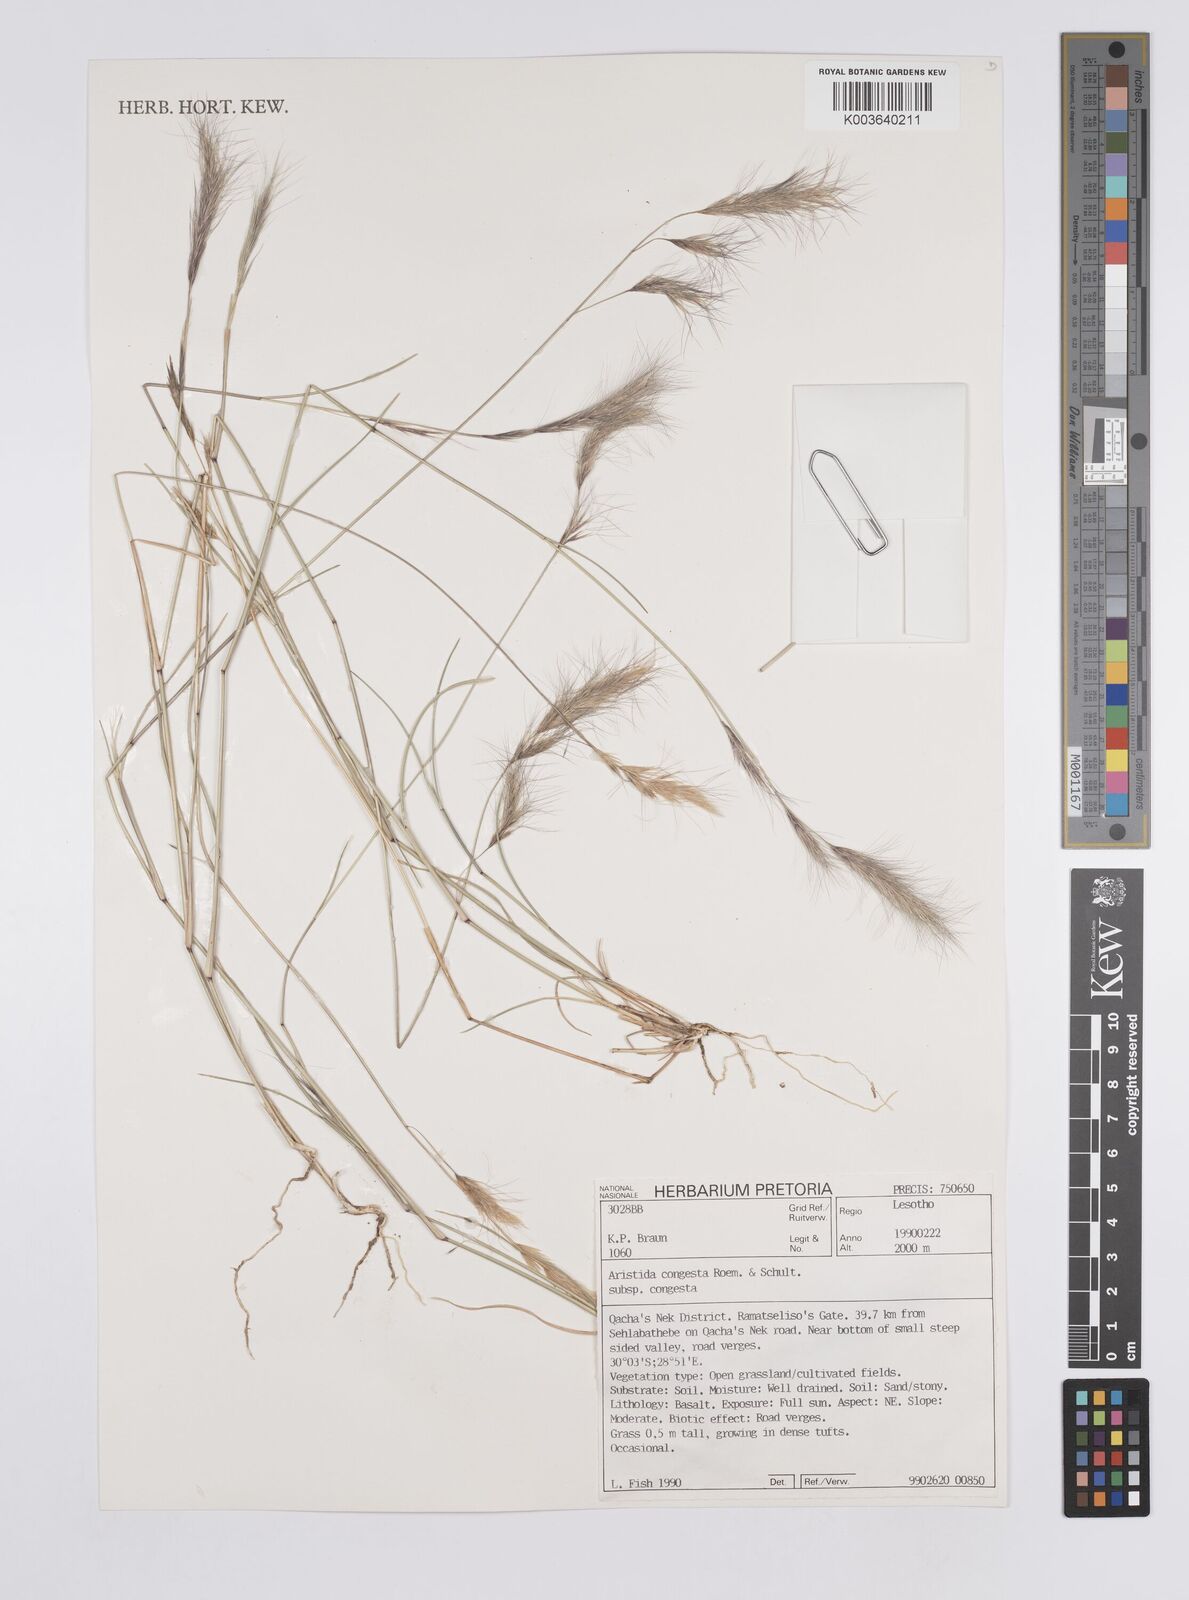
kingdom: Plantae
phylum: Tracheophyta
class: Liliopsida
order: Poales
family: Poaceae
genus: Aristida
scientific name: Aristida congesta
